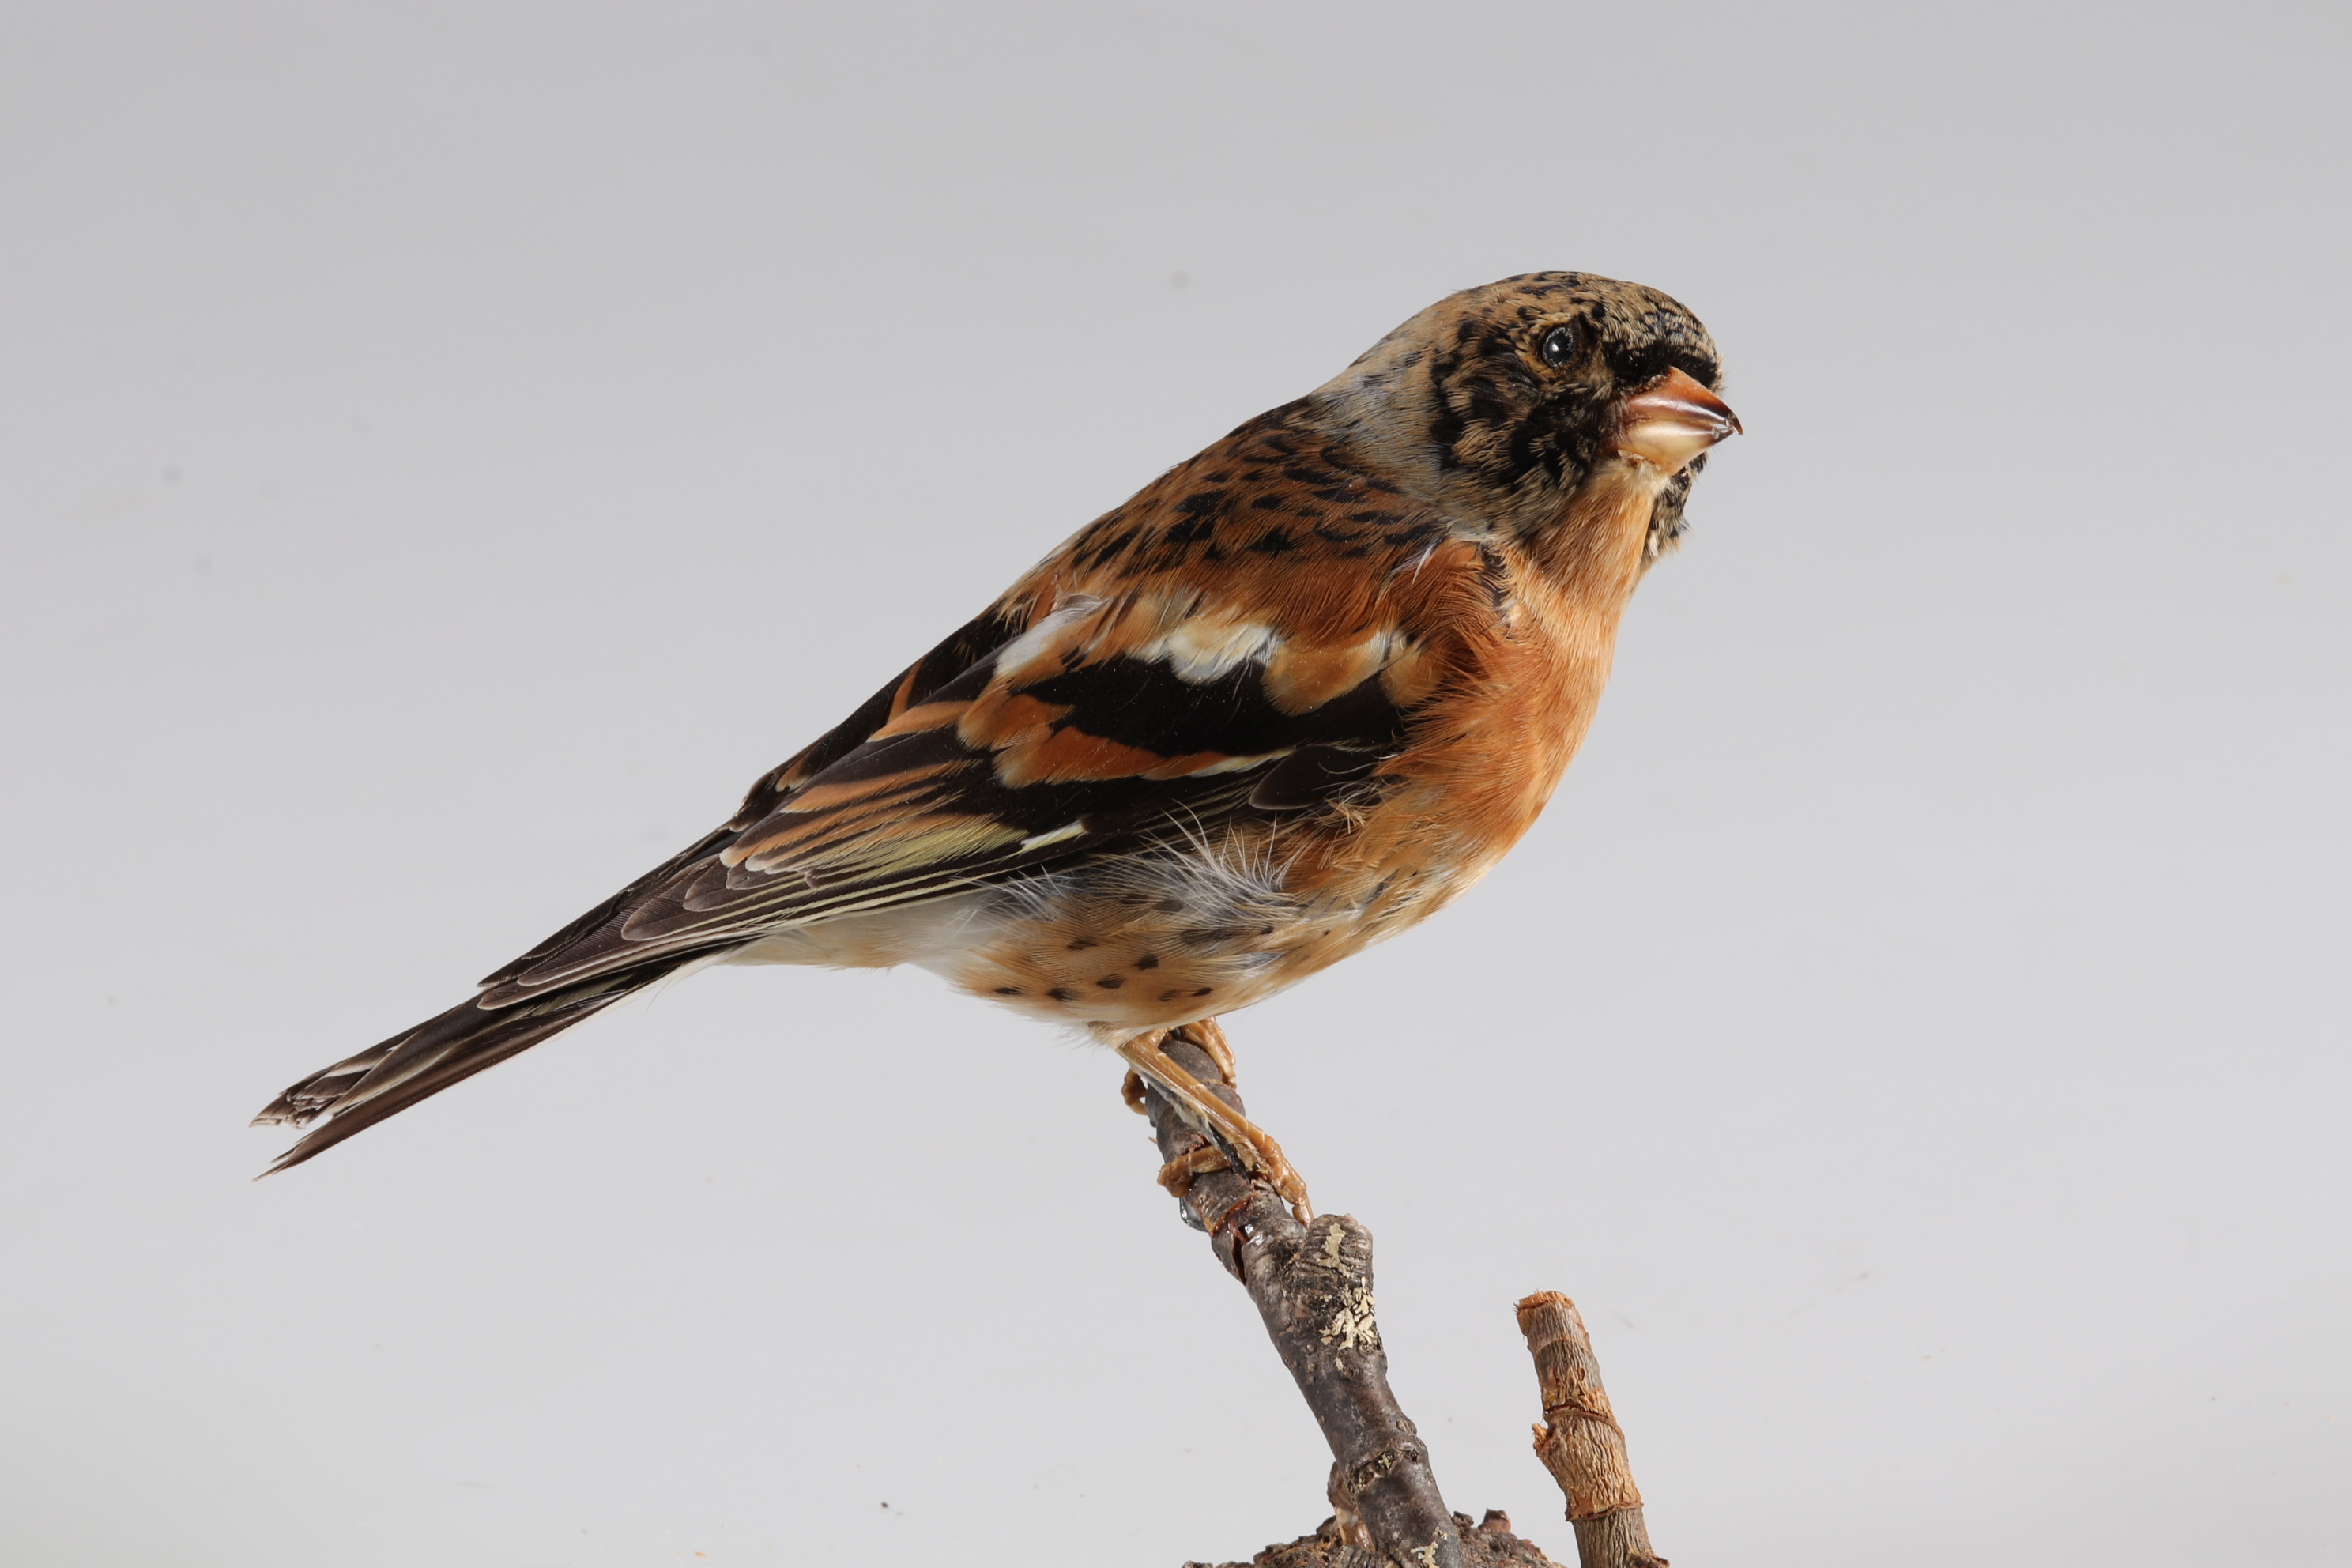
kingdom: Animalia
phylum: Chordata
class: Aves
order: Passeriformes
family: Fringillidae
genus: Fringilla
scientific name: Fringilla montifringilla
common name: Brambling
